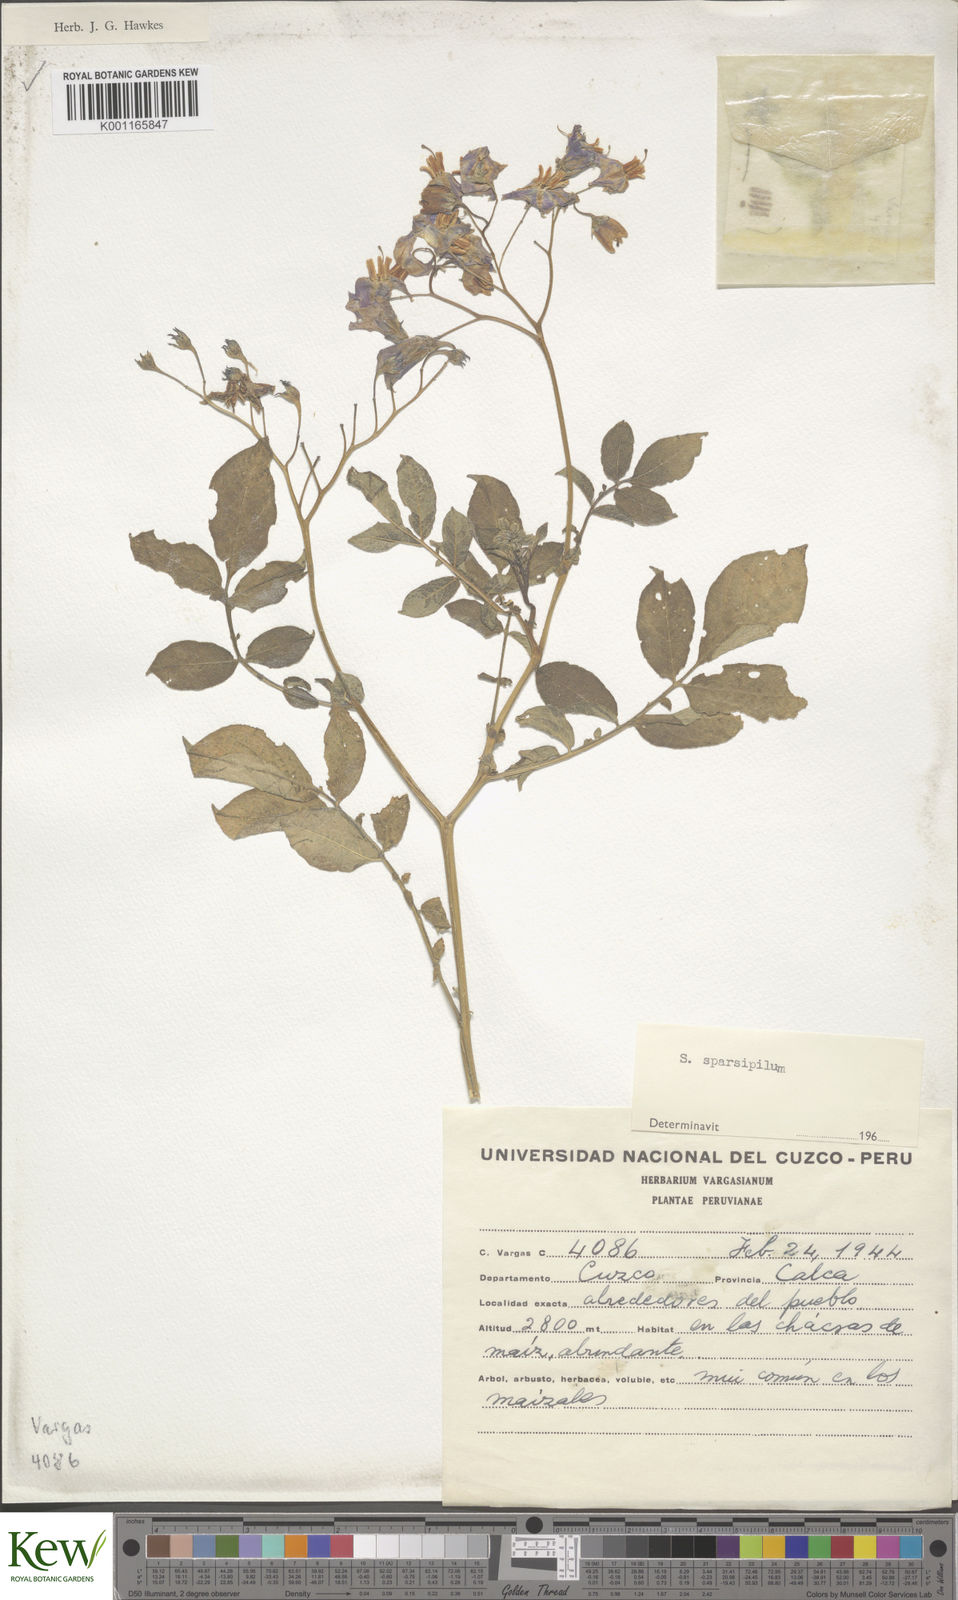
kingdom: Plantae
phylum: Tracheophyta
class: Magnoliopsida
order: Solanales
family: Solanaceae
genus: Solanum
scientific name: Solanum brevicaule
